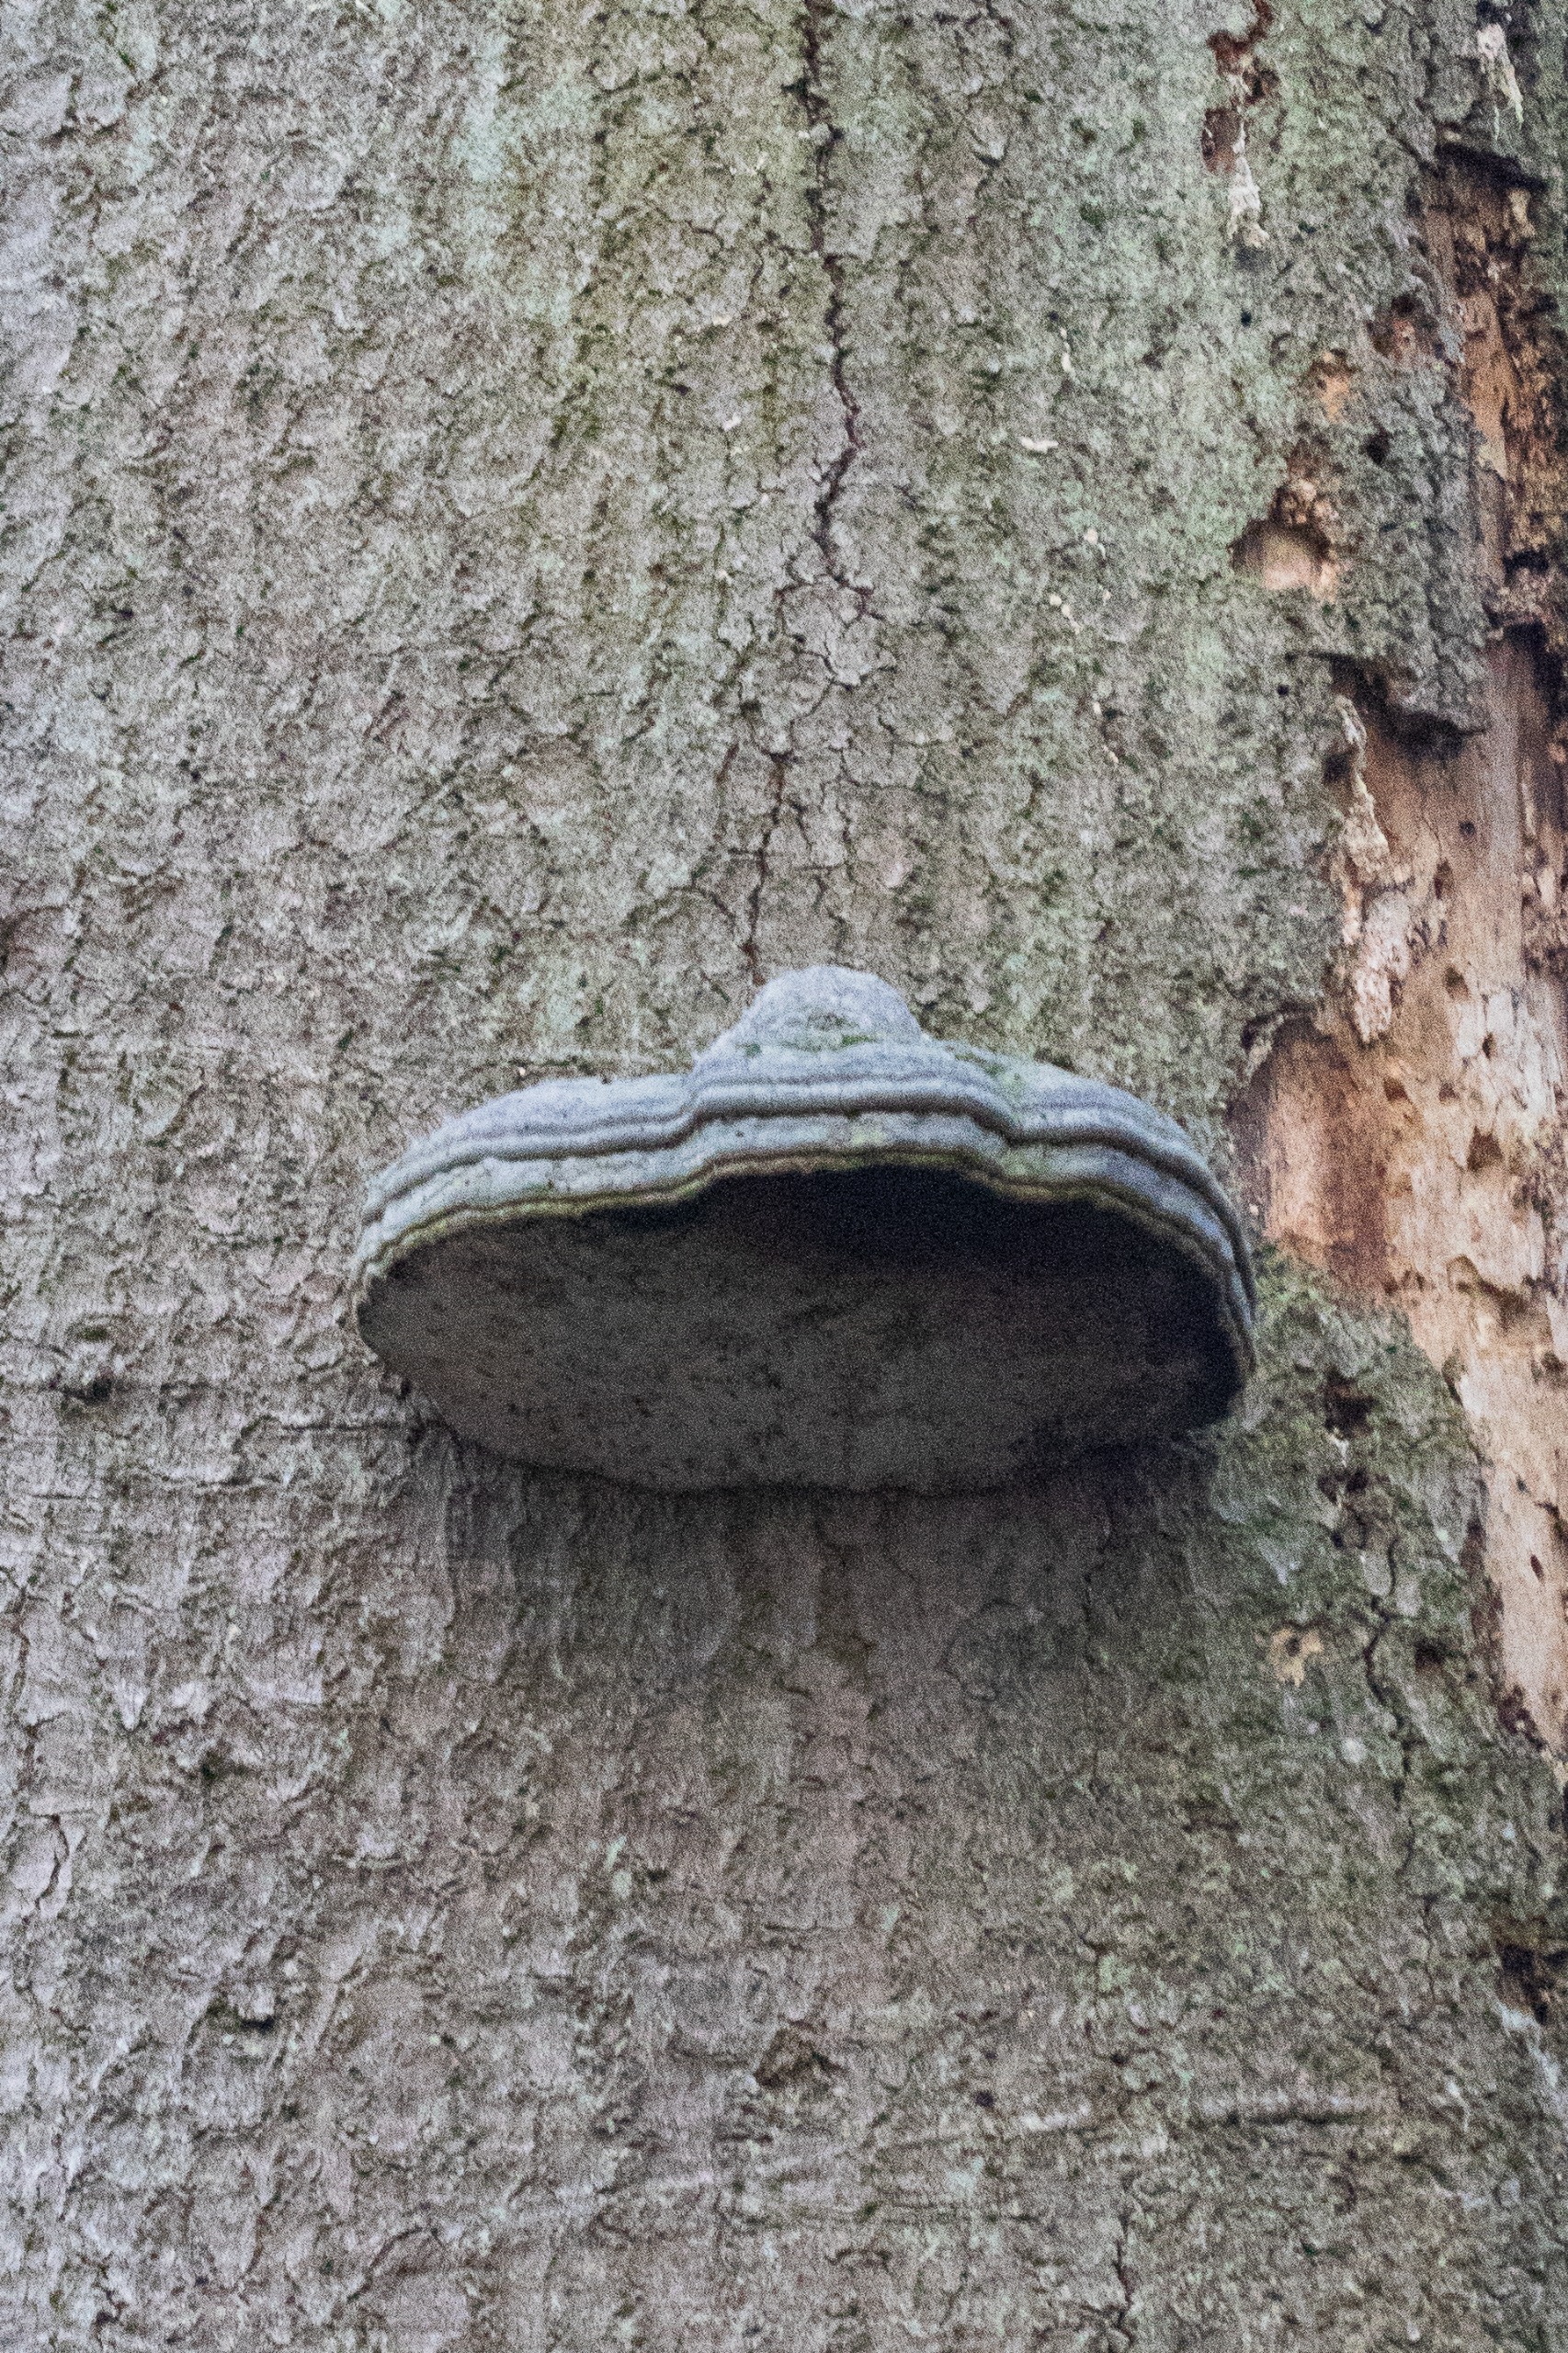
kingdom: Fungi
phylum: Basidiomycota
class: Agaricomycetes
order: Polyporales
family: Polyporaceae
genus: Fomes
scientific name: Fomes fomentarius
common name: Tøndersvamp
